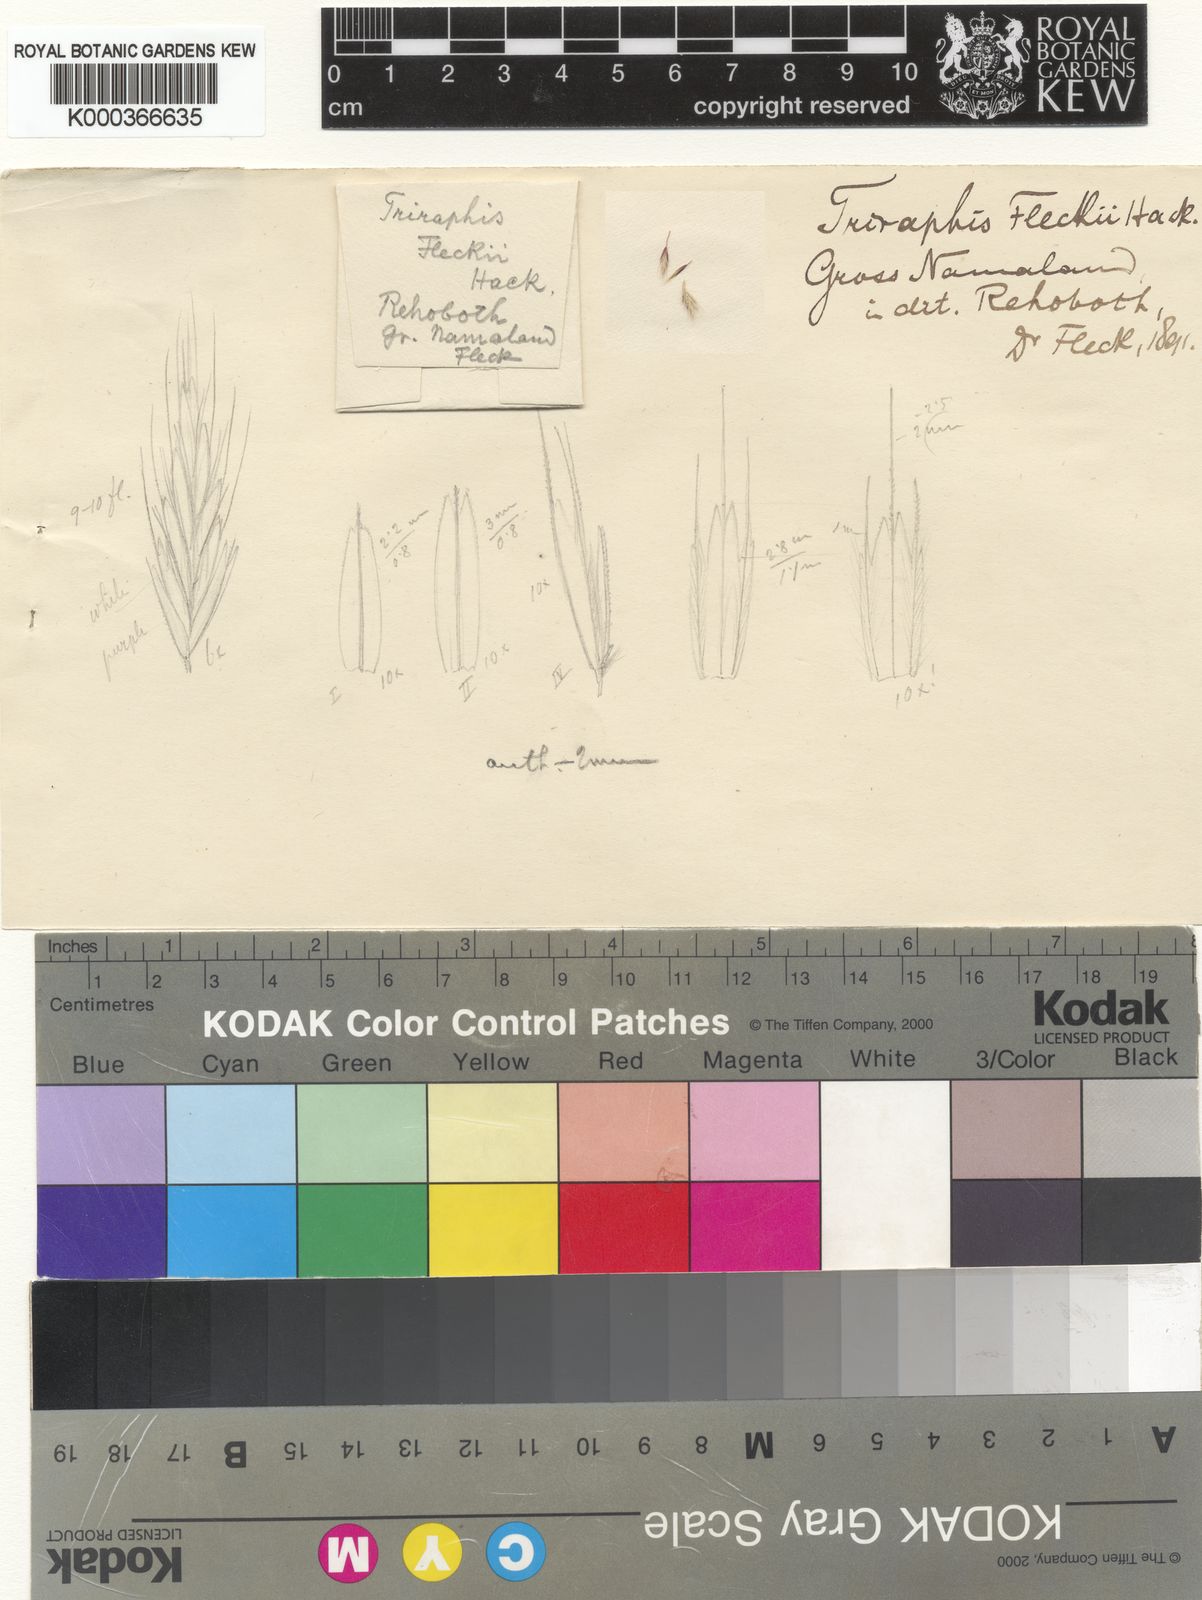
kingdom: Plantae
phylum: Tracheophyta
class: Liliopsida
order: Poales
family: Poaceae
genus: Triraphis
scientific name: Triraphis
